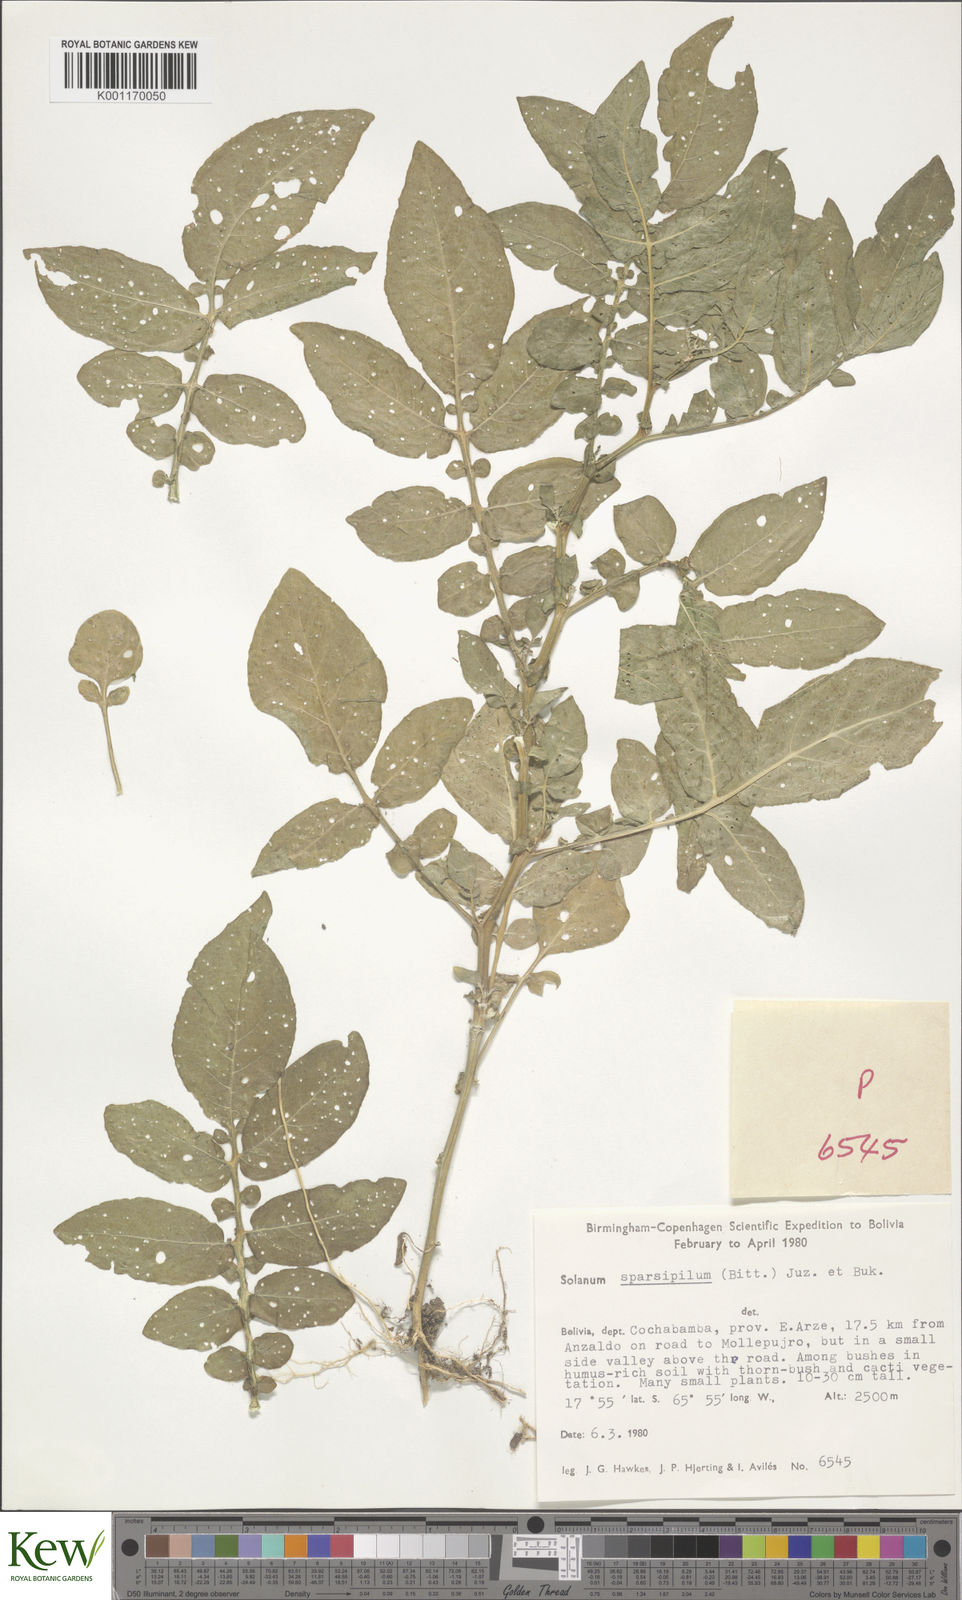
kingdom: Plantae
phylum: Tracheophyta
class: Magnoliopsida
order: Solanales
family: Solanaceae
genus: Solanum
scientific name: Solanum brevicaule
